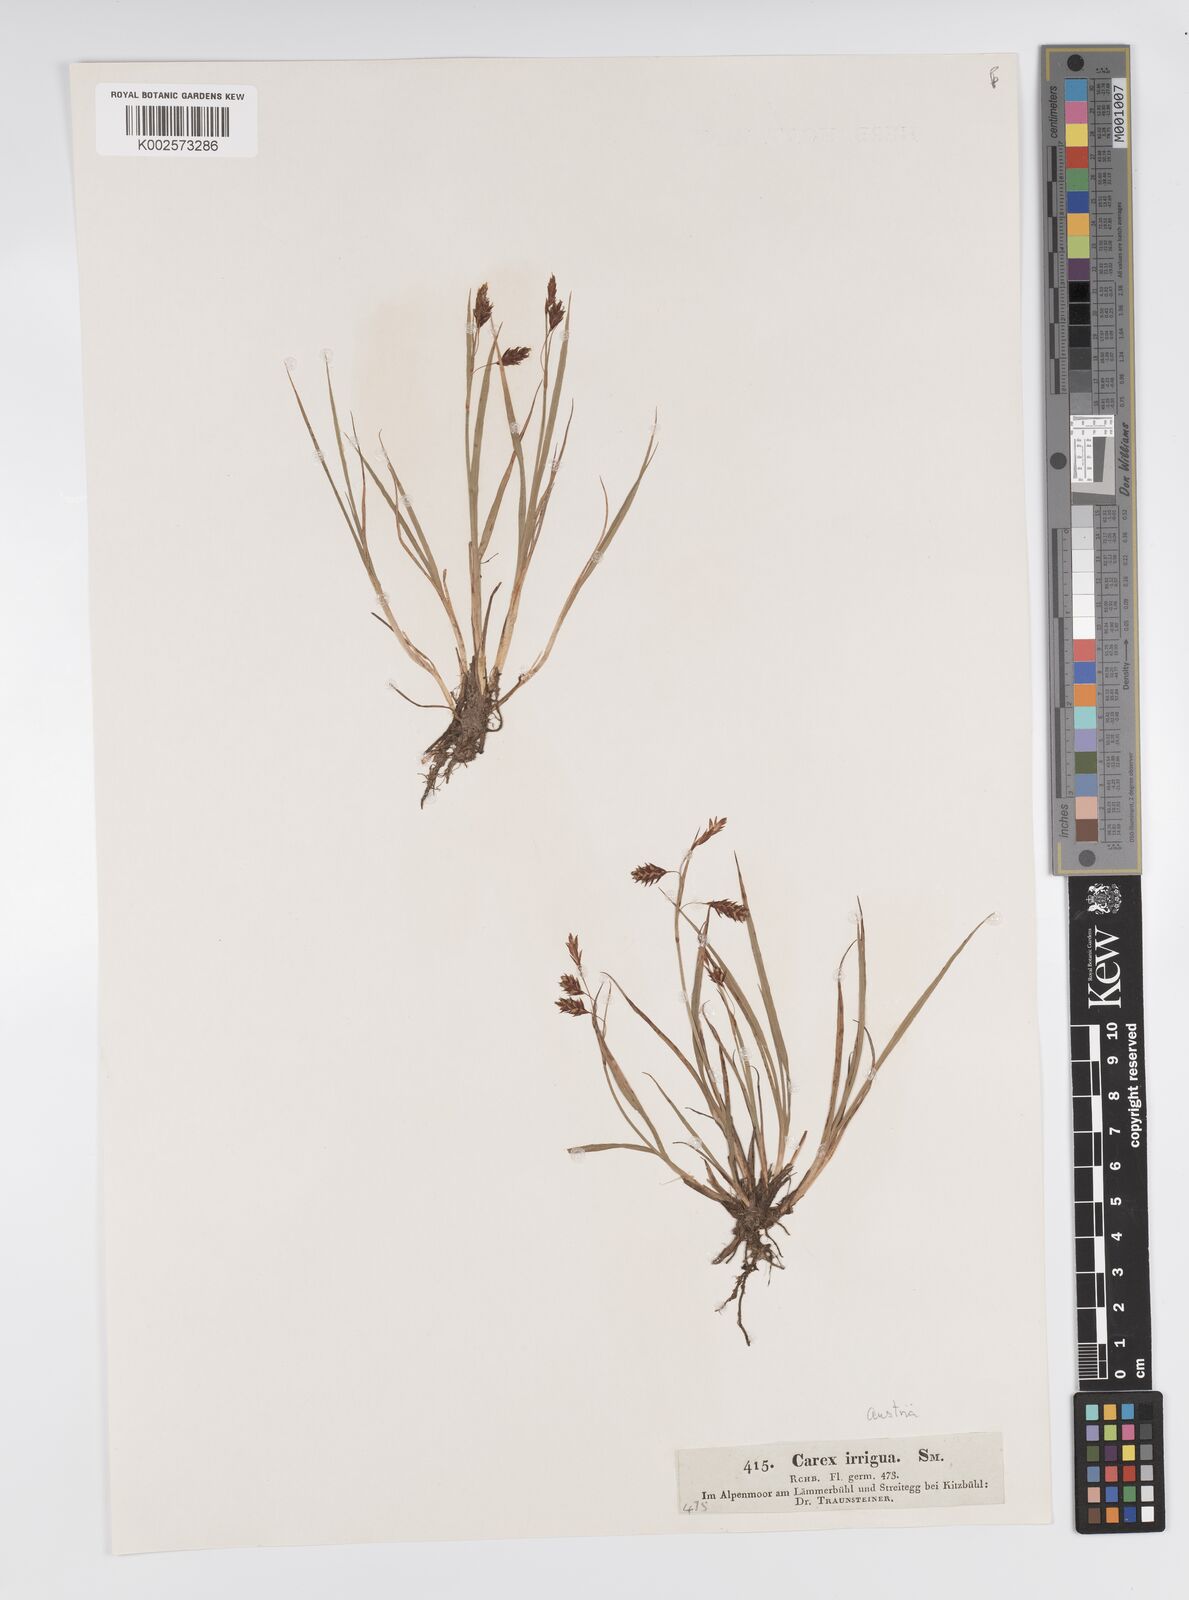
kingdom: Plantae
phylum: Tracheophyta
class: Liliopsida
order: Poales
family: Cyperaceae
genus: Carex
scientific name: Carex magellanica
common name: Bog sedge
